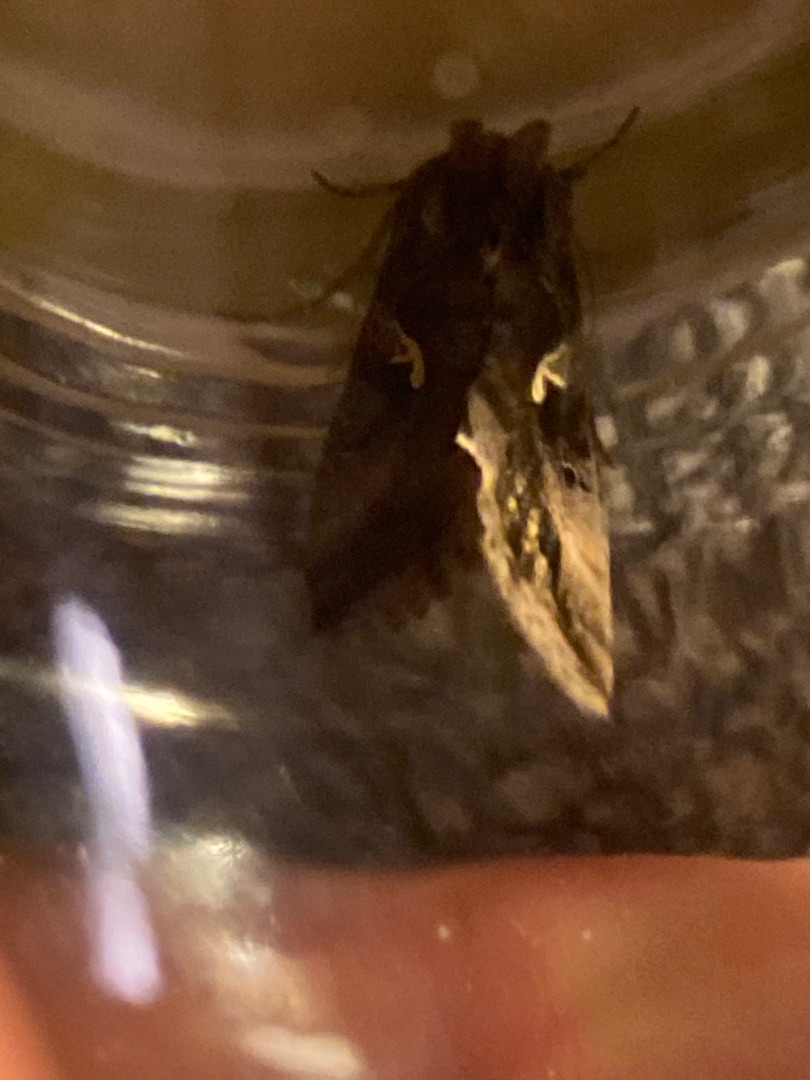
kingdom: Animalia
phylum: Arthropoda
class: Insecta
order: Lepidoptera
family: Noctuidae
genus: Autographa
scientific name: Autographa gamma
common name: Gammaugle
